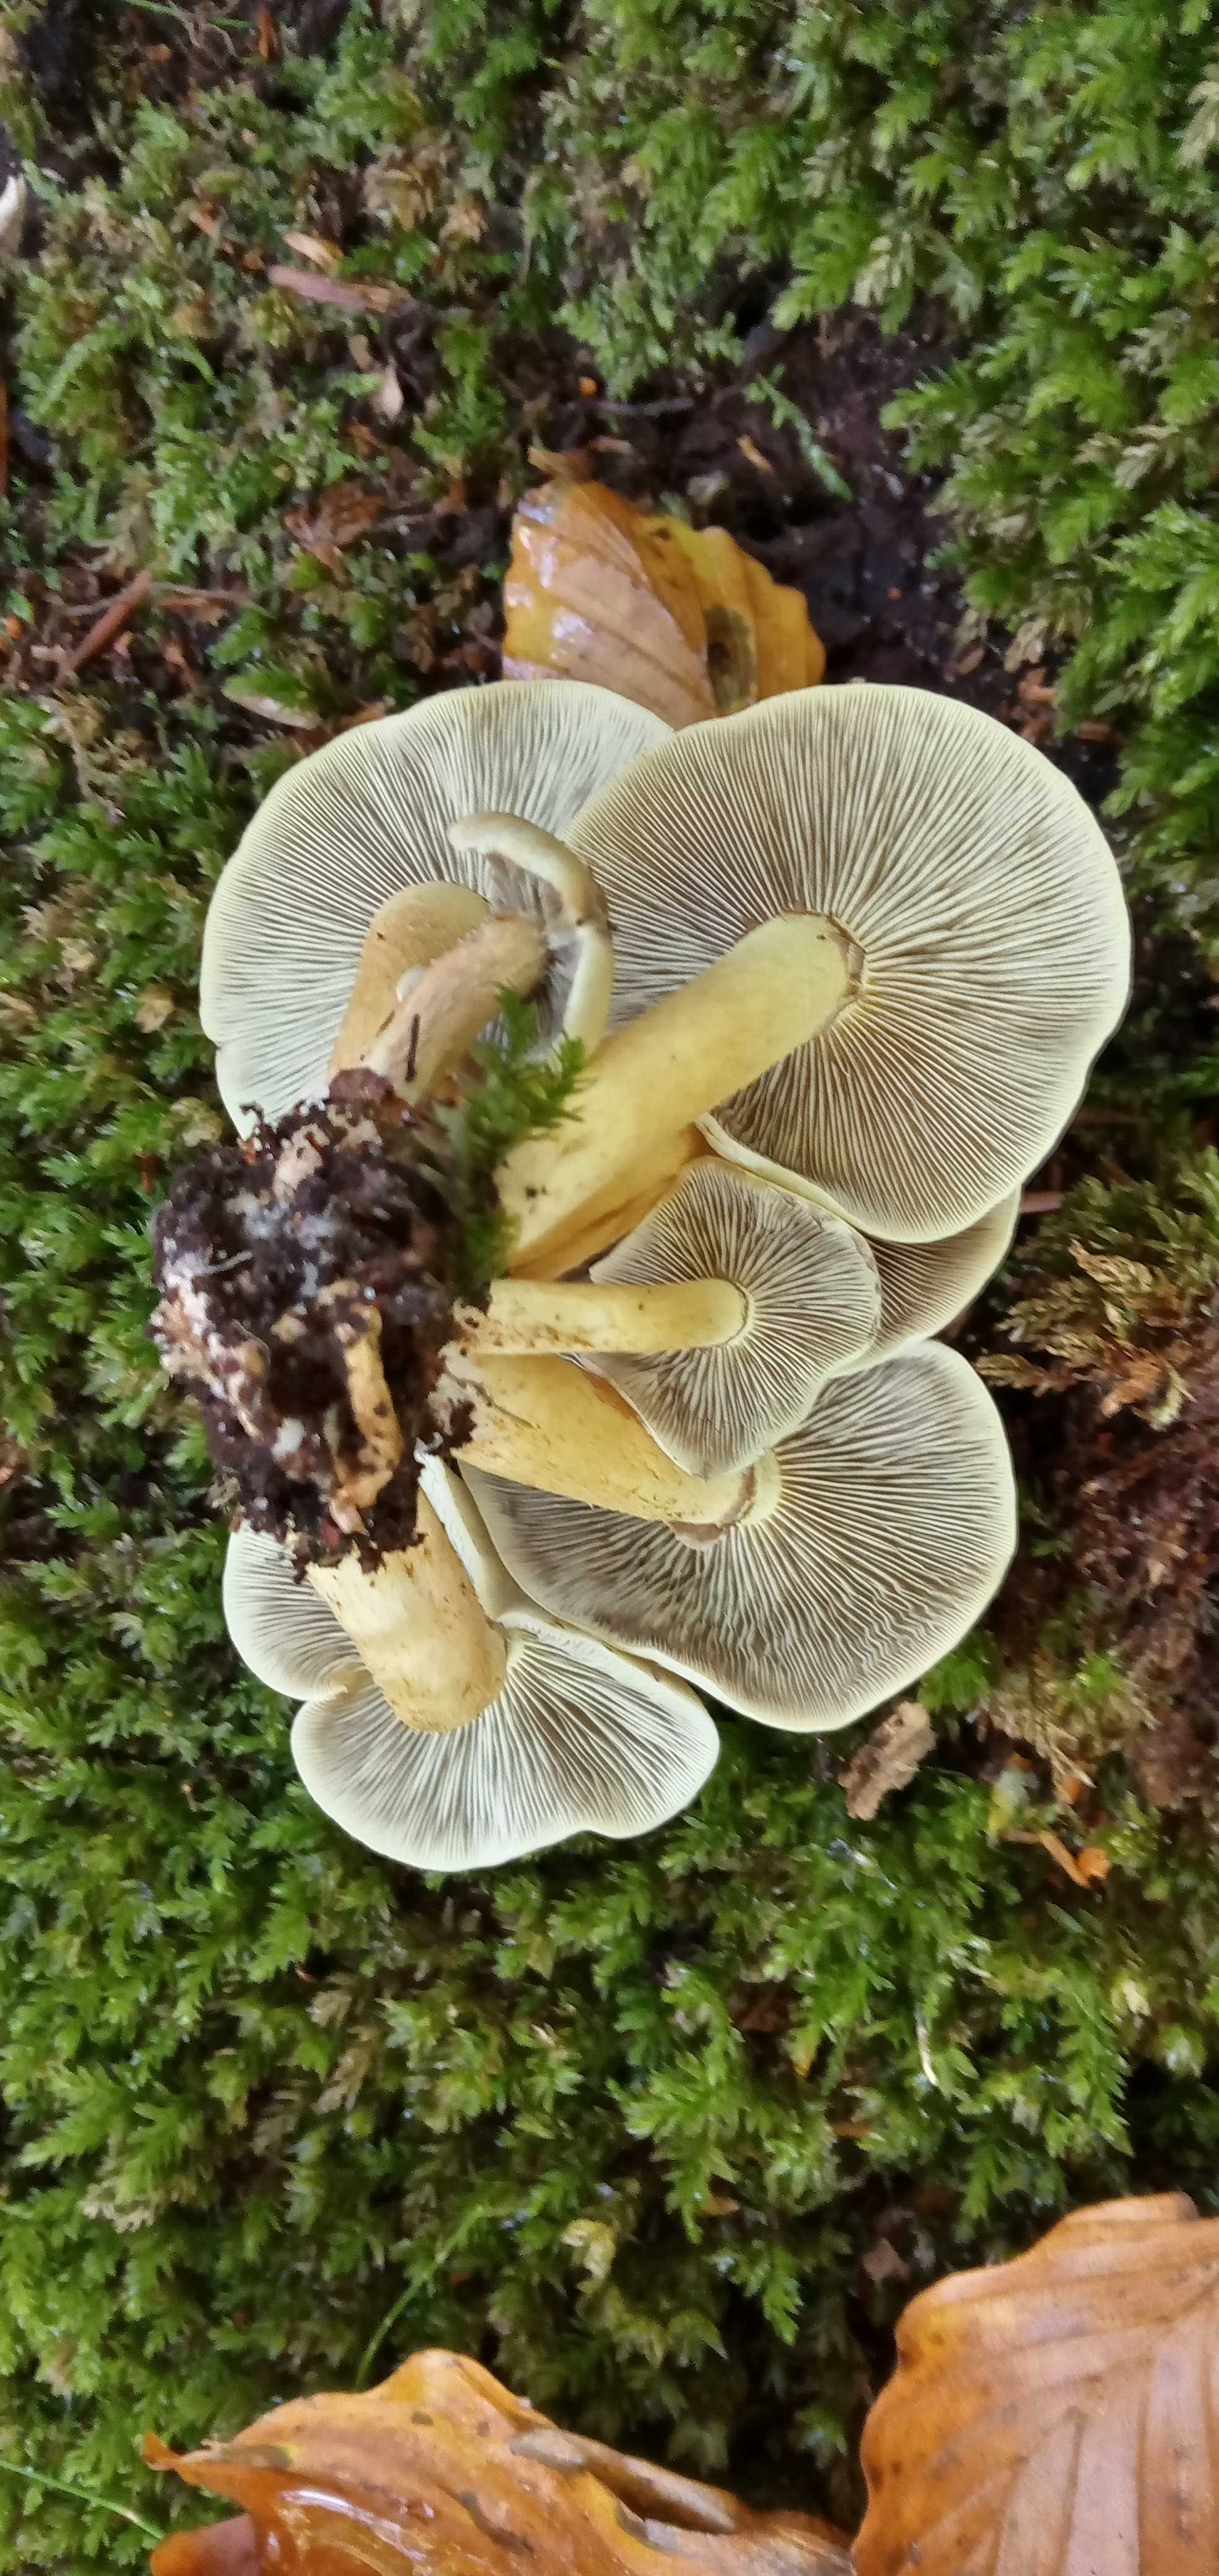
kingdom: Fungi
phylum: Basidiomycota
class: Agaricomycetes
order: Agaricales
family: Strophariaceae
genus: Hypholoma
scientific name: Hypholoma fasciculare
